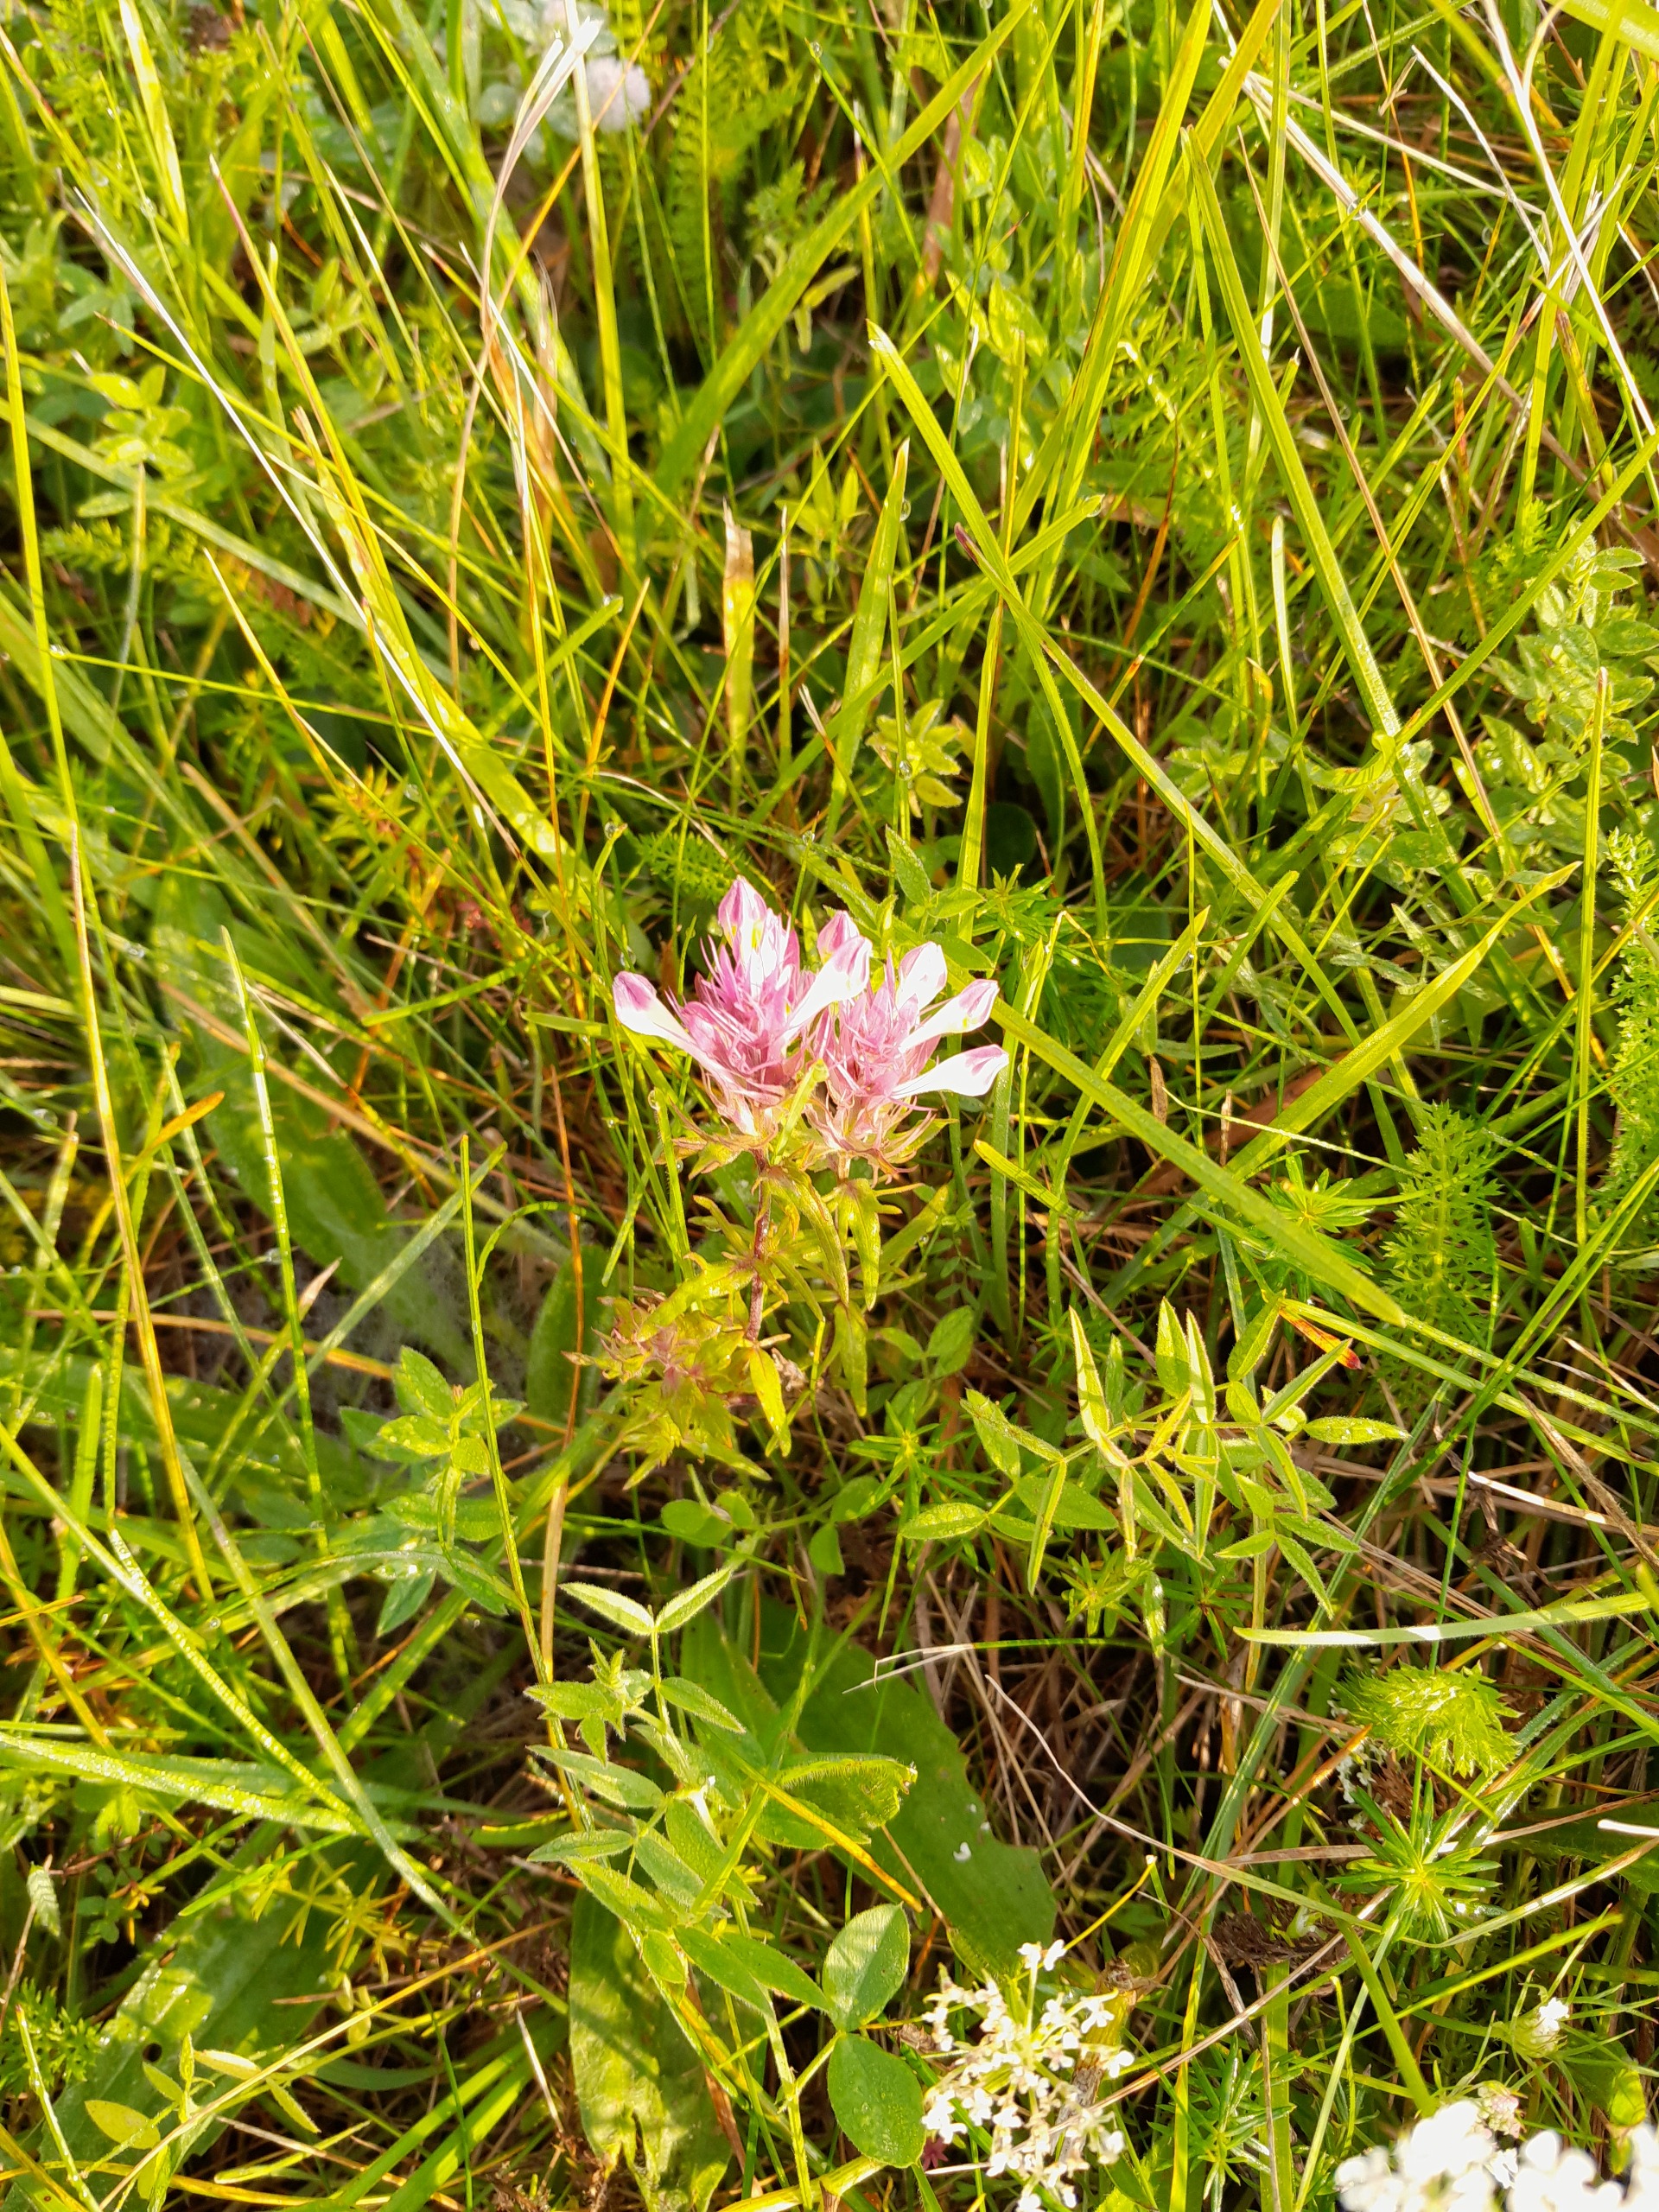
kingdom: Plantae
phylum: Tracheophyta
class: Magnoliopsida
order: Lamiales
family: Orobanchaceae
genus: Melampyrum
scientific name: Melampyrum arvense
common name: Ager-kohvede
